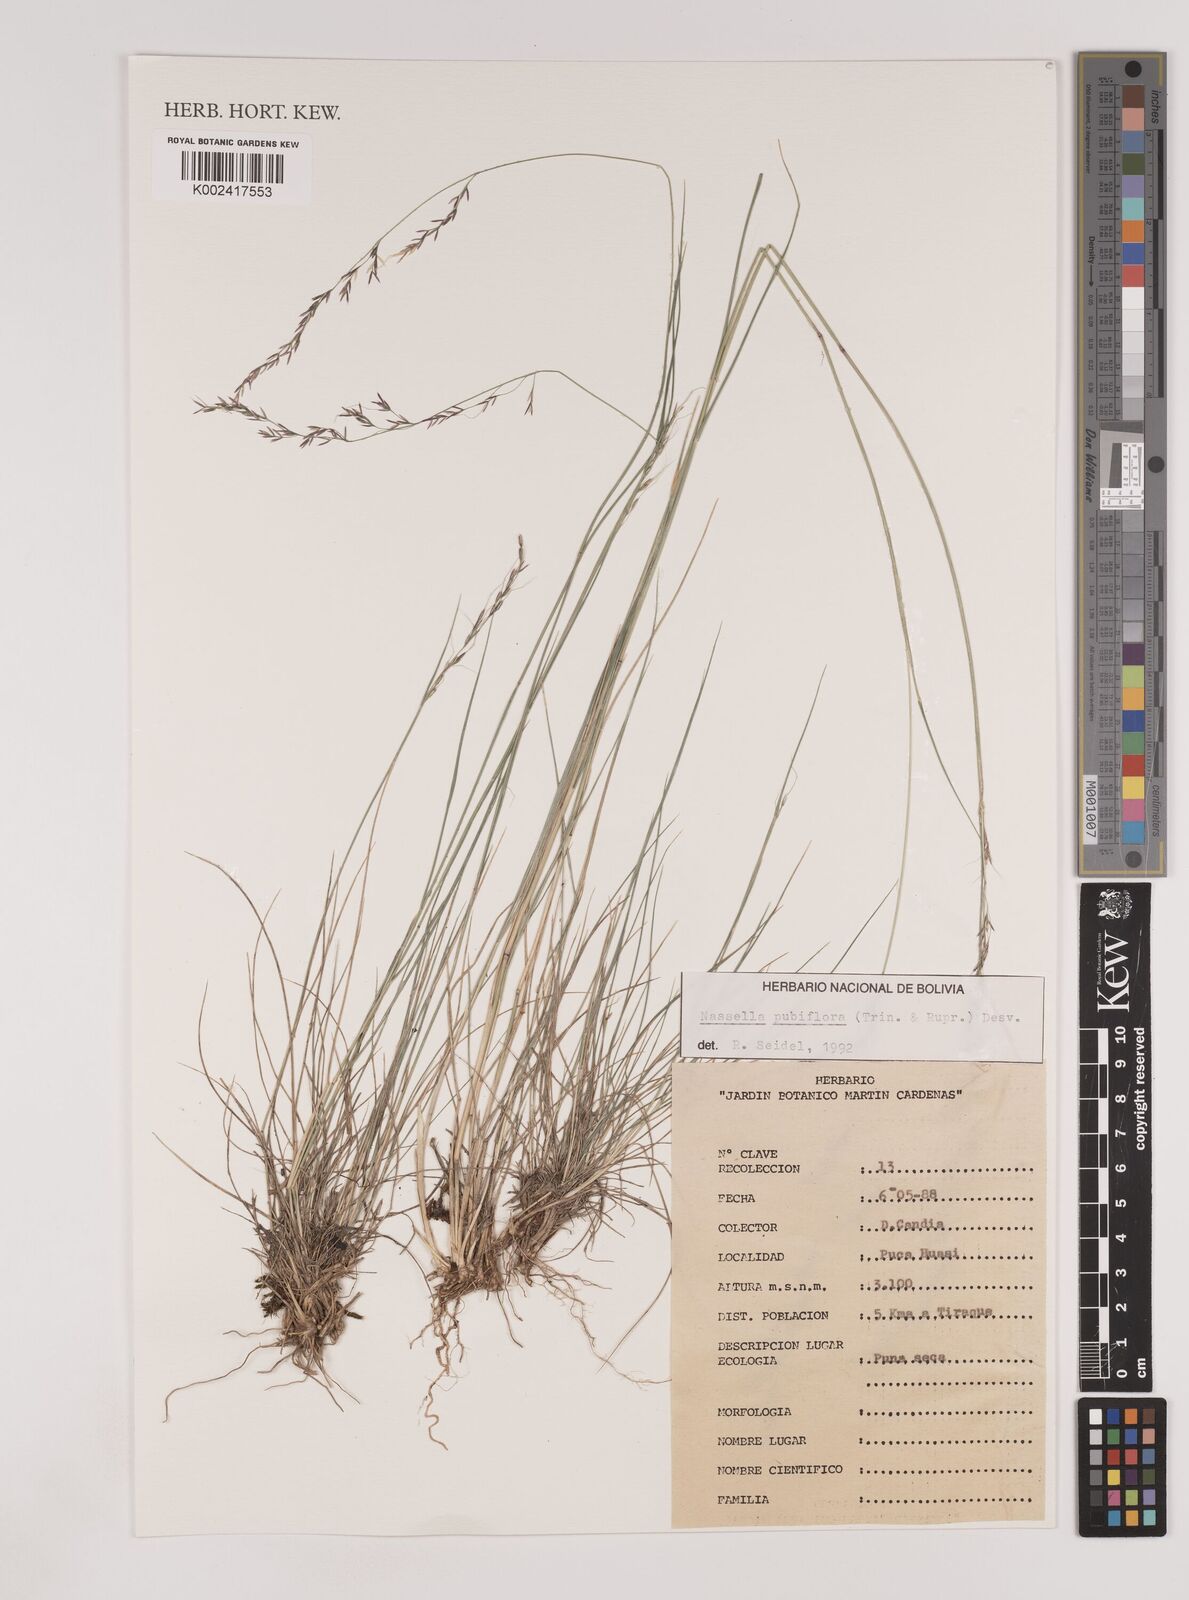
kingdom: Plantae
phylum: Tracheophyta
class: Liliopsida
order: Poales
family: Poaceae
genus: Nassella
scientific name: Nassella pubiflora
